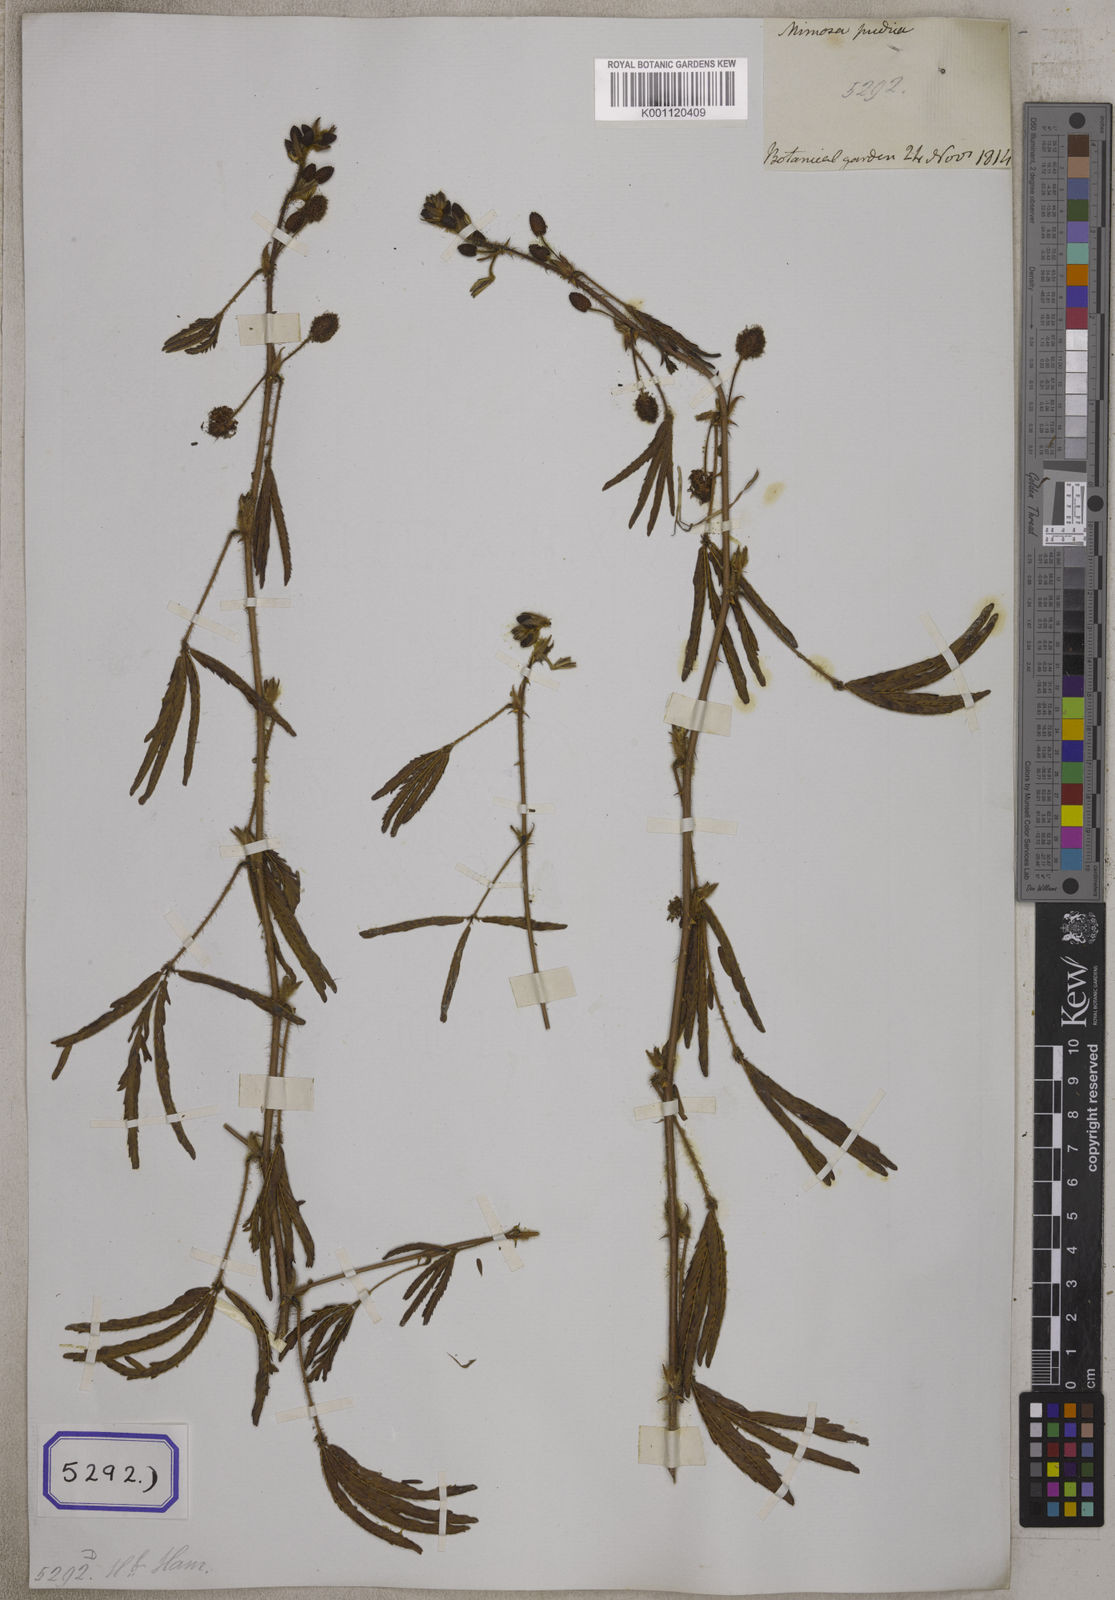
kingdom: Plantae
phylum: Tracheophyta
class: Magnoliopsida
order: Fabales
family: Fabaceae
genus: Mimosa
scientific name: Mimosa pudica
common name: Sensitive plant
